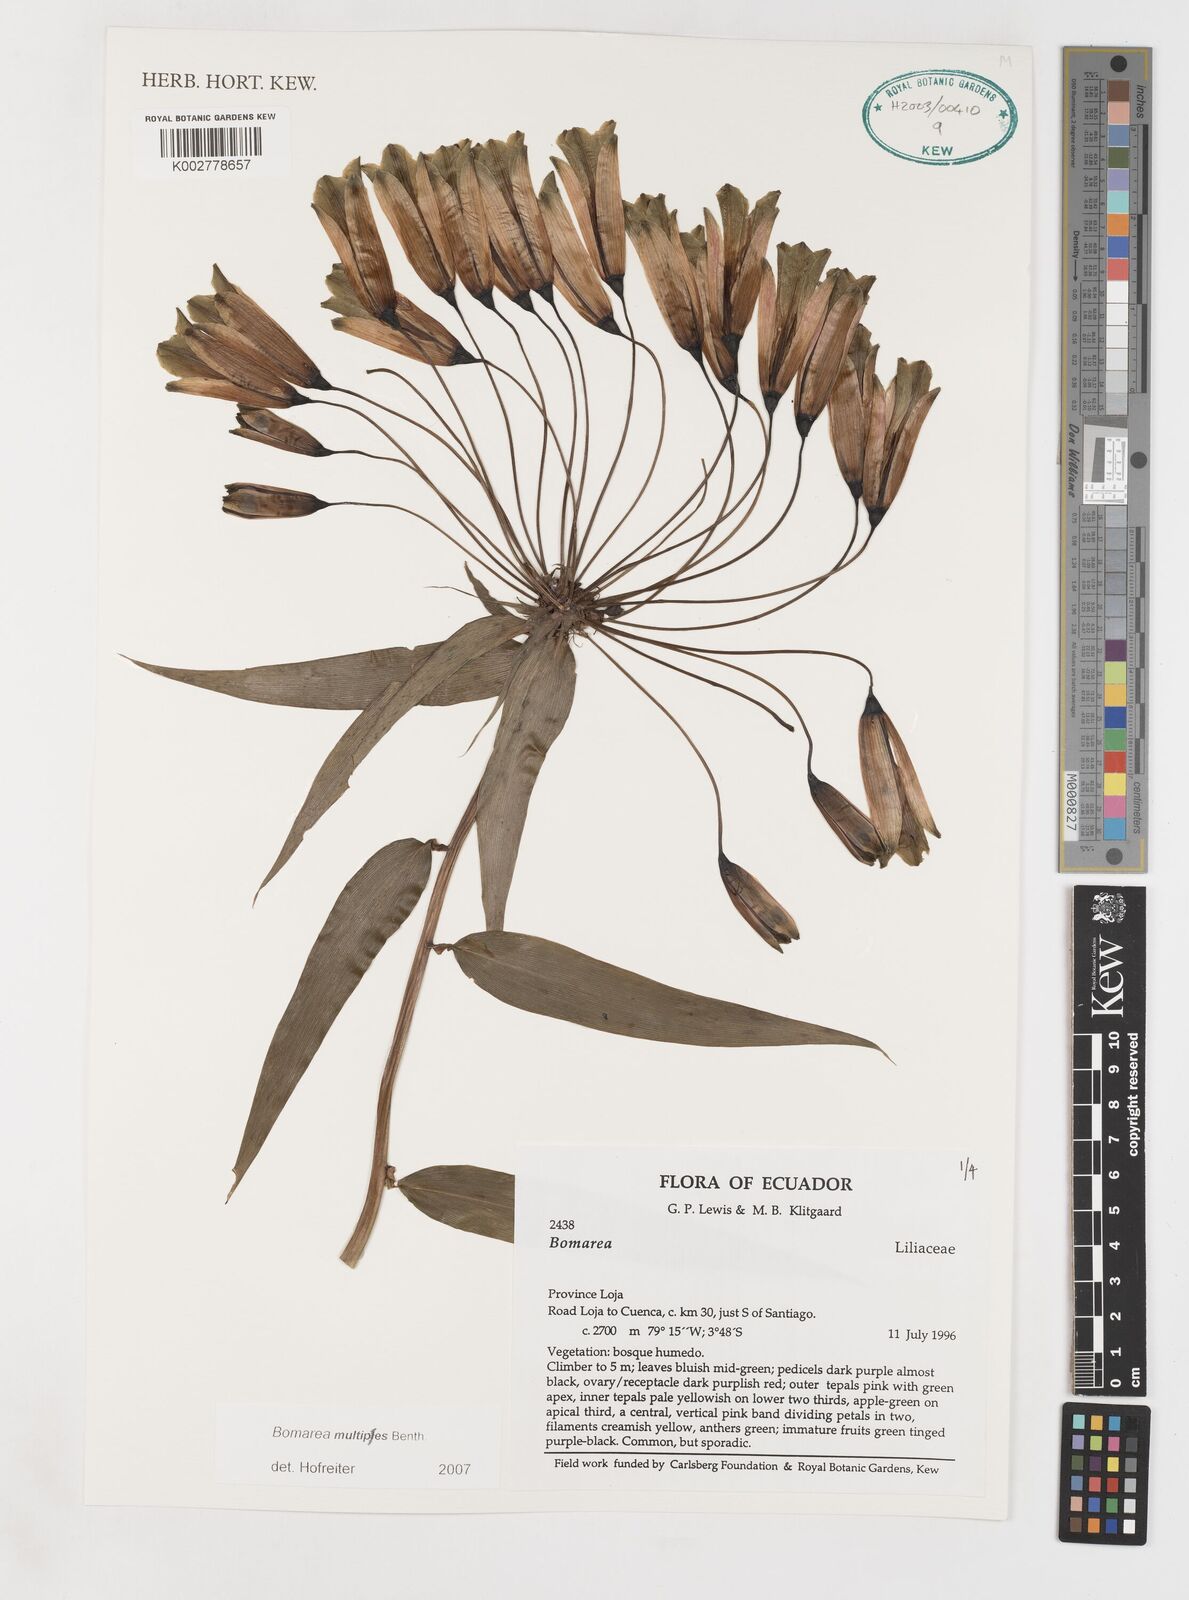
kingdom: Plantae
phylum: Tracheophyta
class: Liliopsida
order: Liliales
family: Alstroemeriaceae
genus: Bomarea
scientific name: Bomarea multipes
